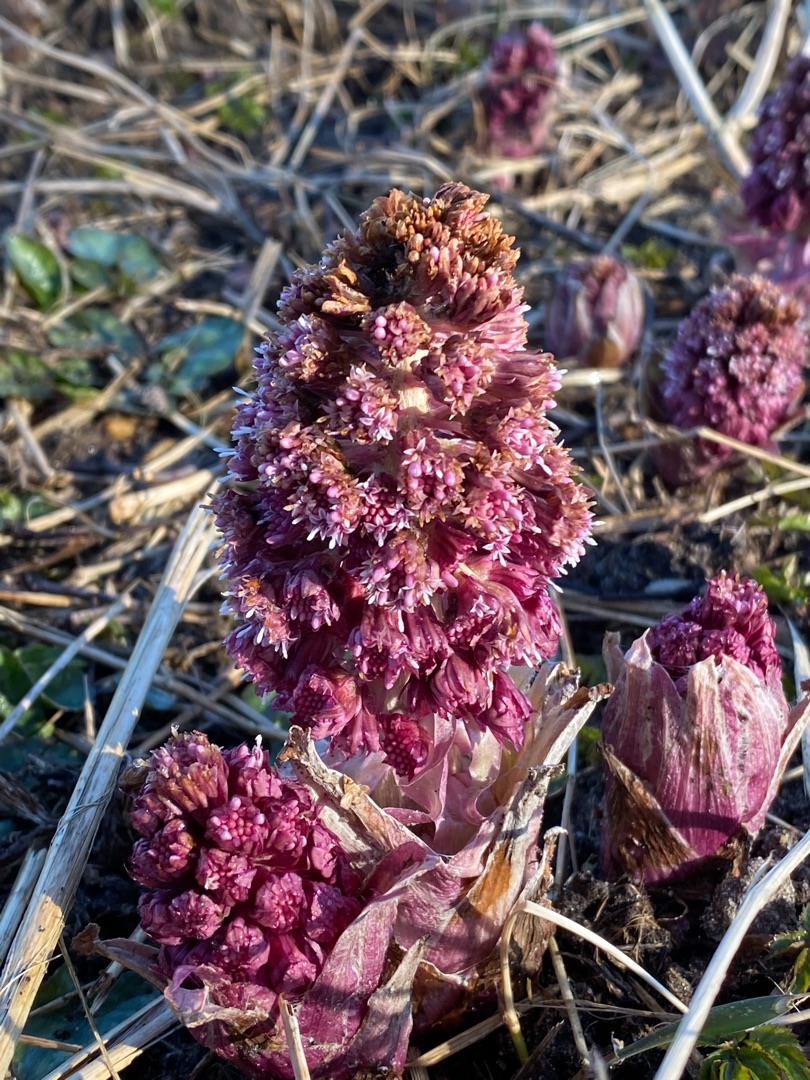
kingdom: Plantae
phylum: Tracheophyta
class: Magnoliopsida
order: Asterales
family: Asteraceae
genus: Petasites
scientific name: Petasites hybridus
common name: Rød hestehov
